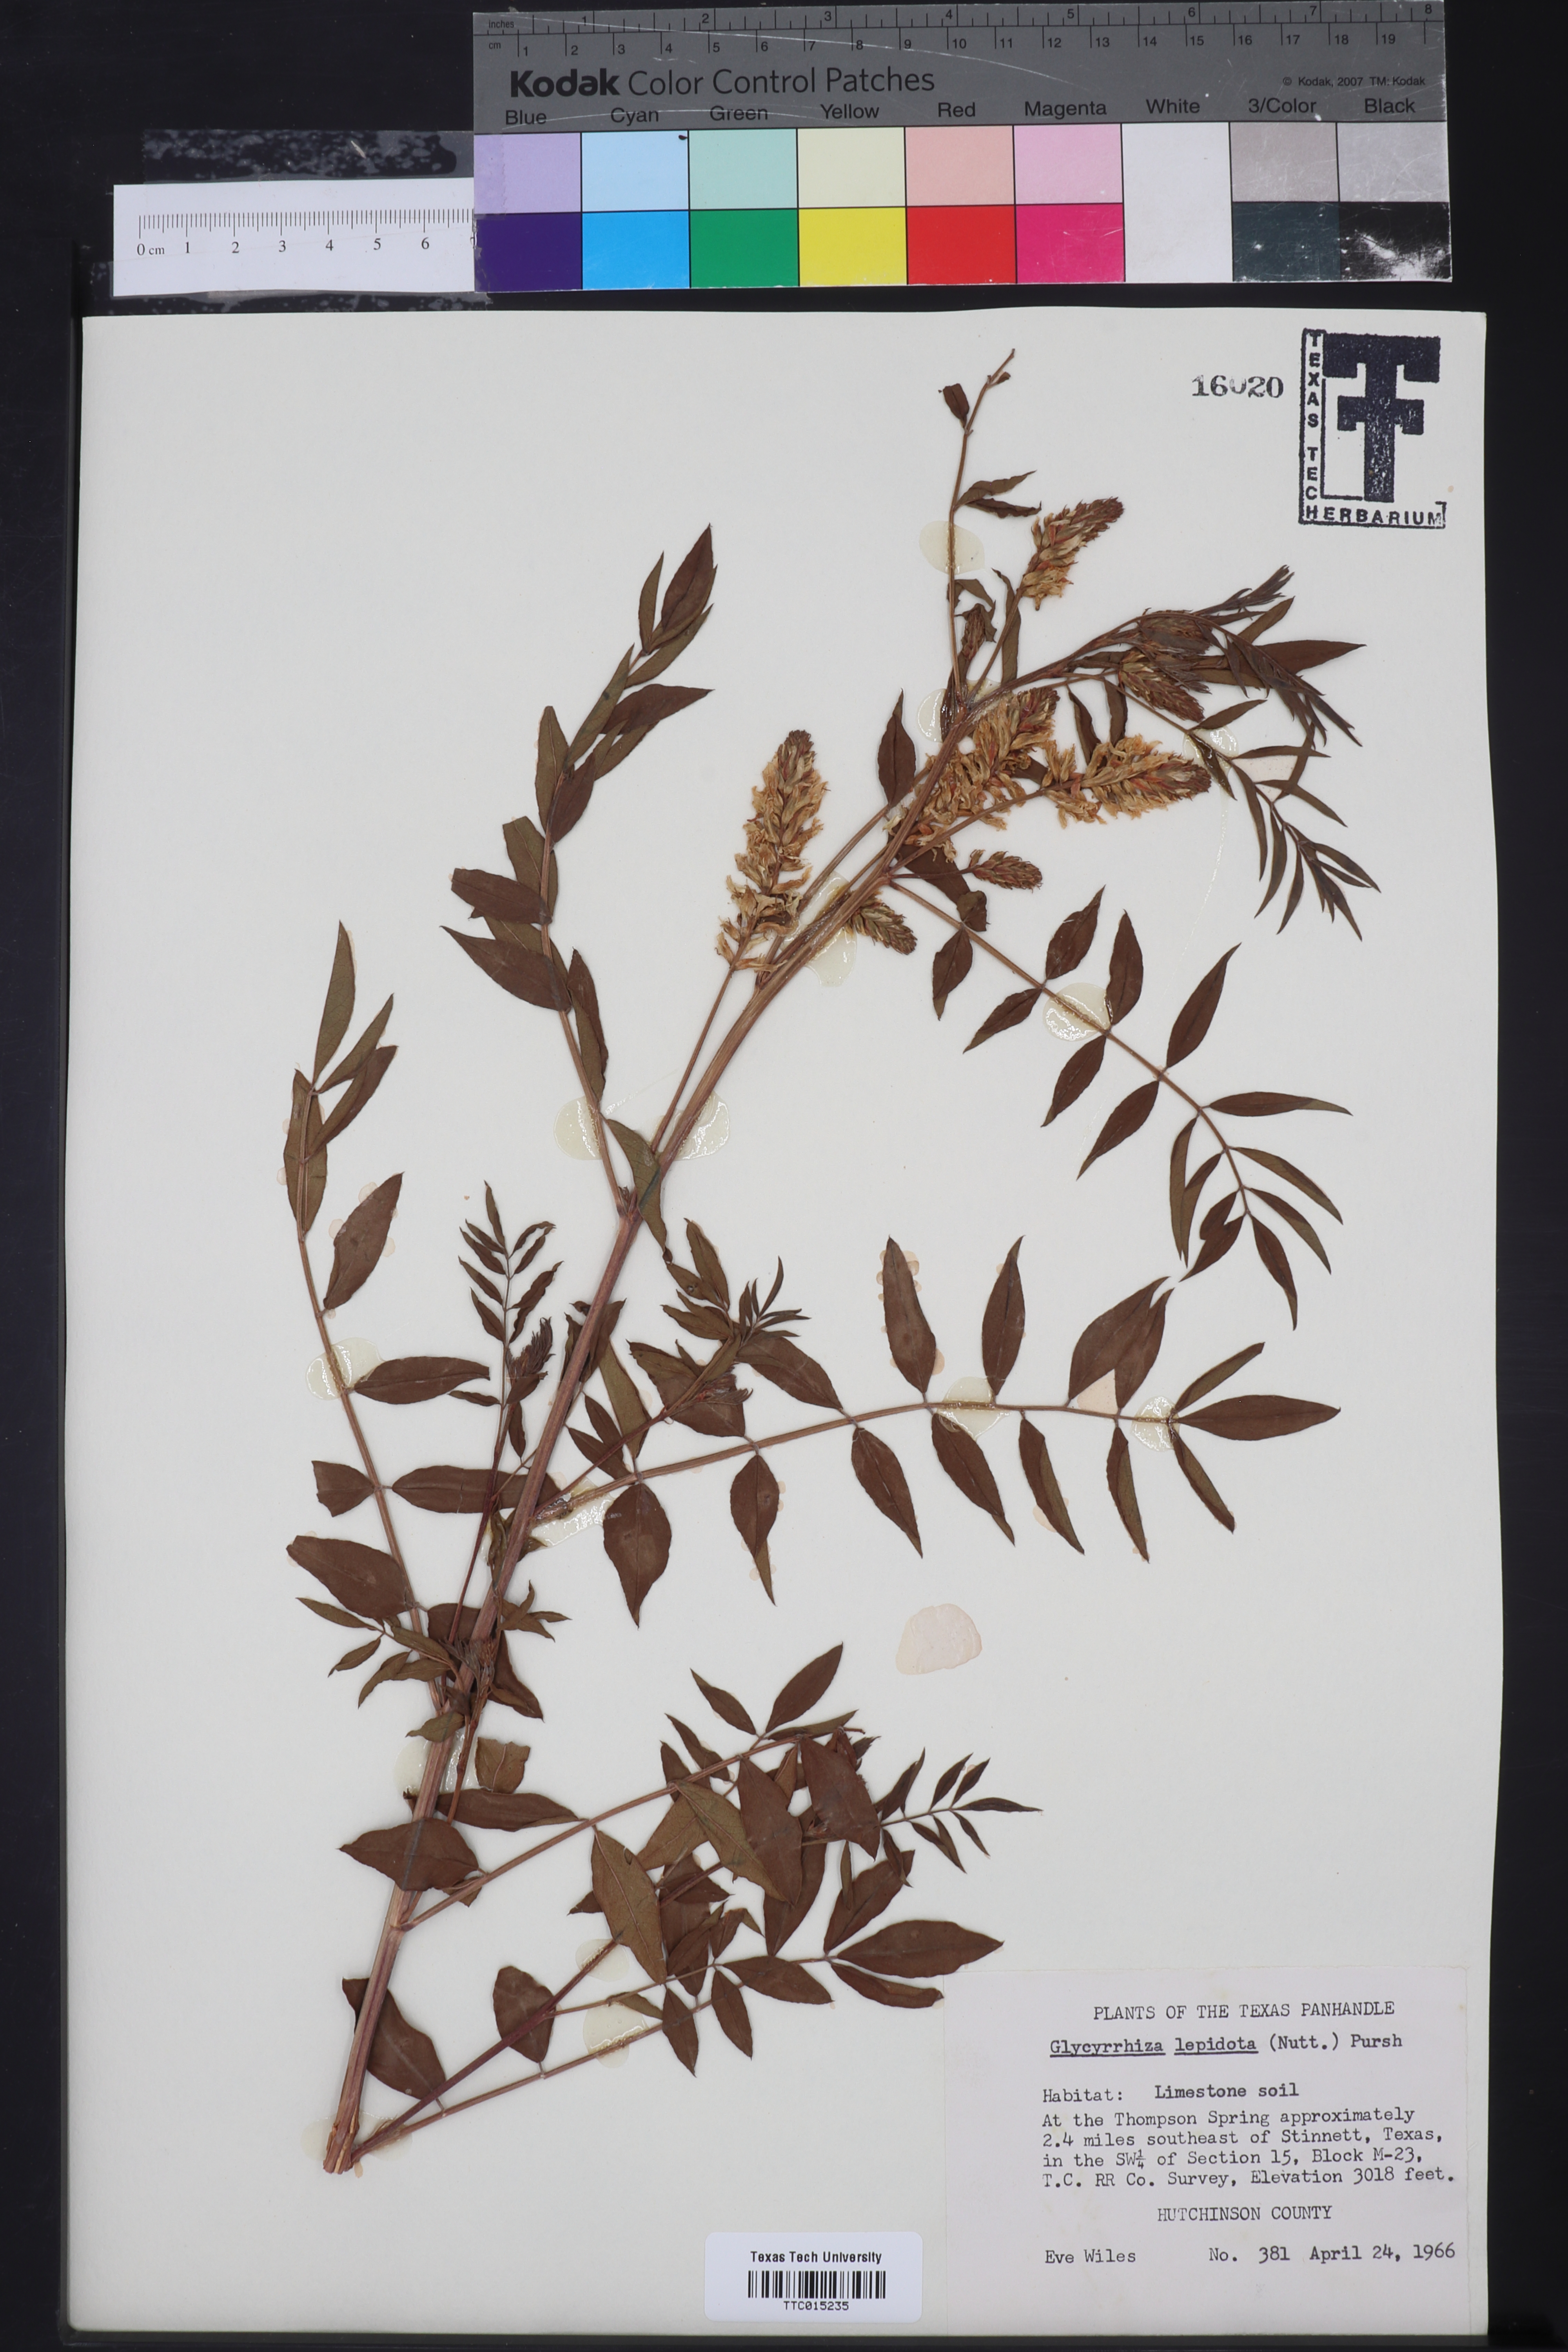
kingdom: Plantae
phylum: Tracheophyta
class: Magnoliopsida
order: Fabales
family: Fabaceae
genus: Glycyrrhiza
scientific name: Glycyrrhiza lepidota
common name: American liquorice
